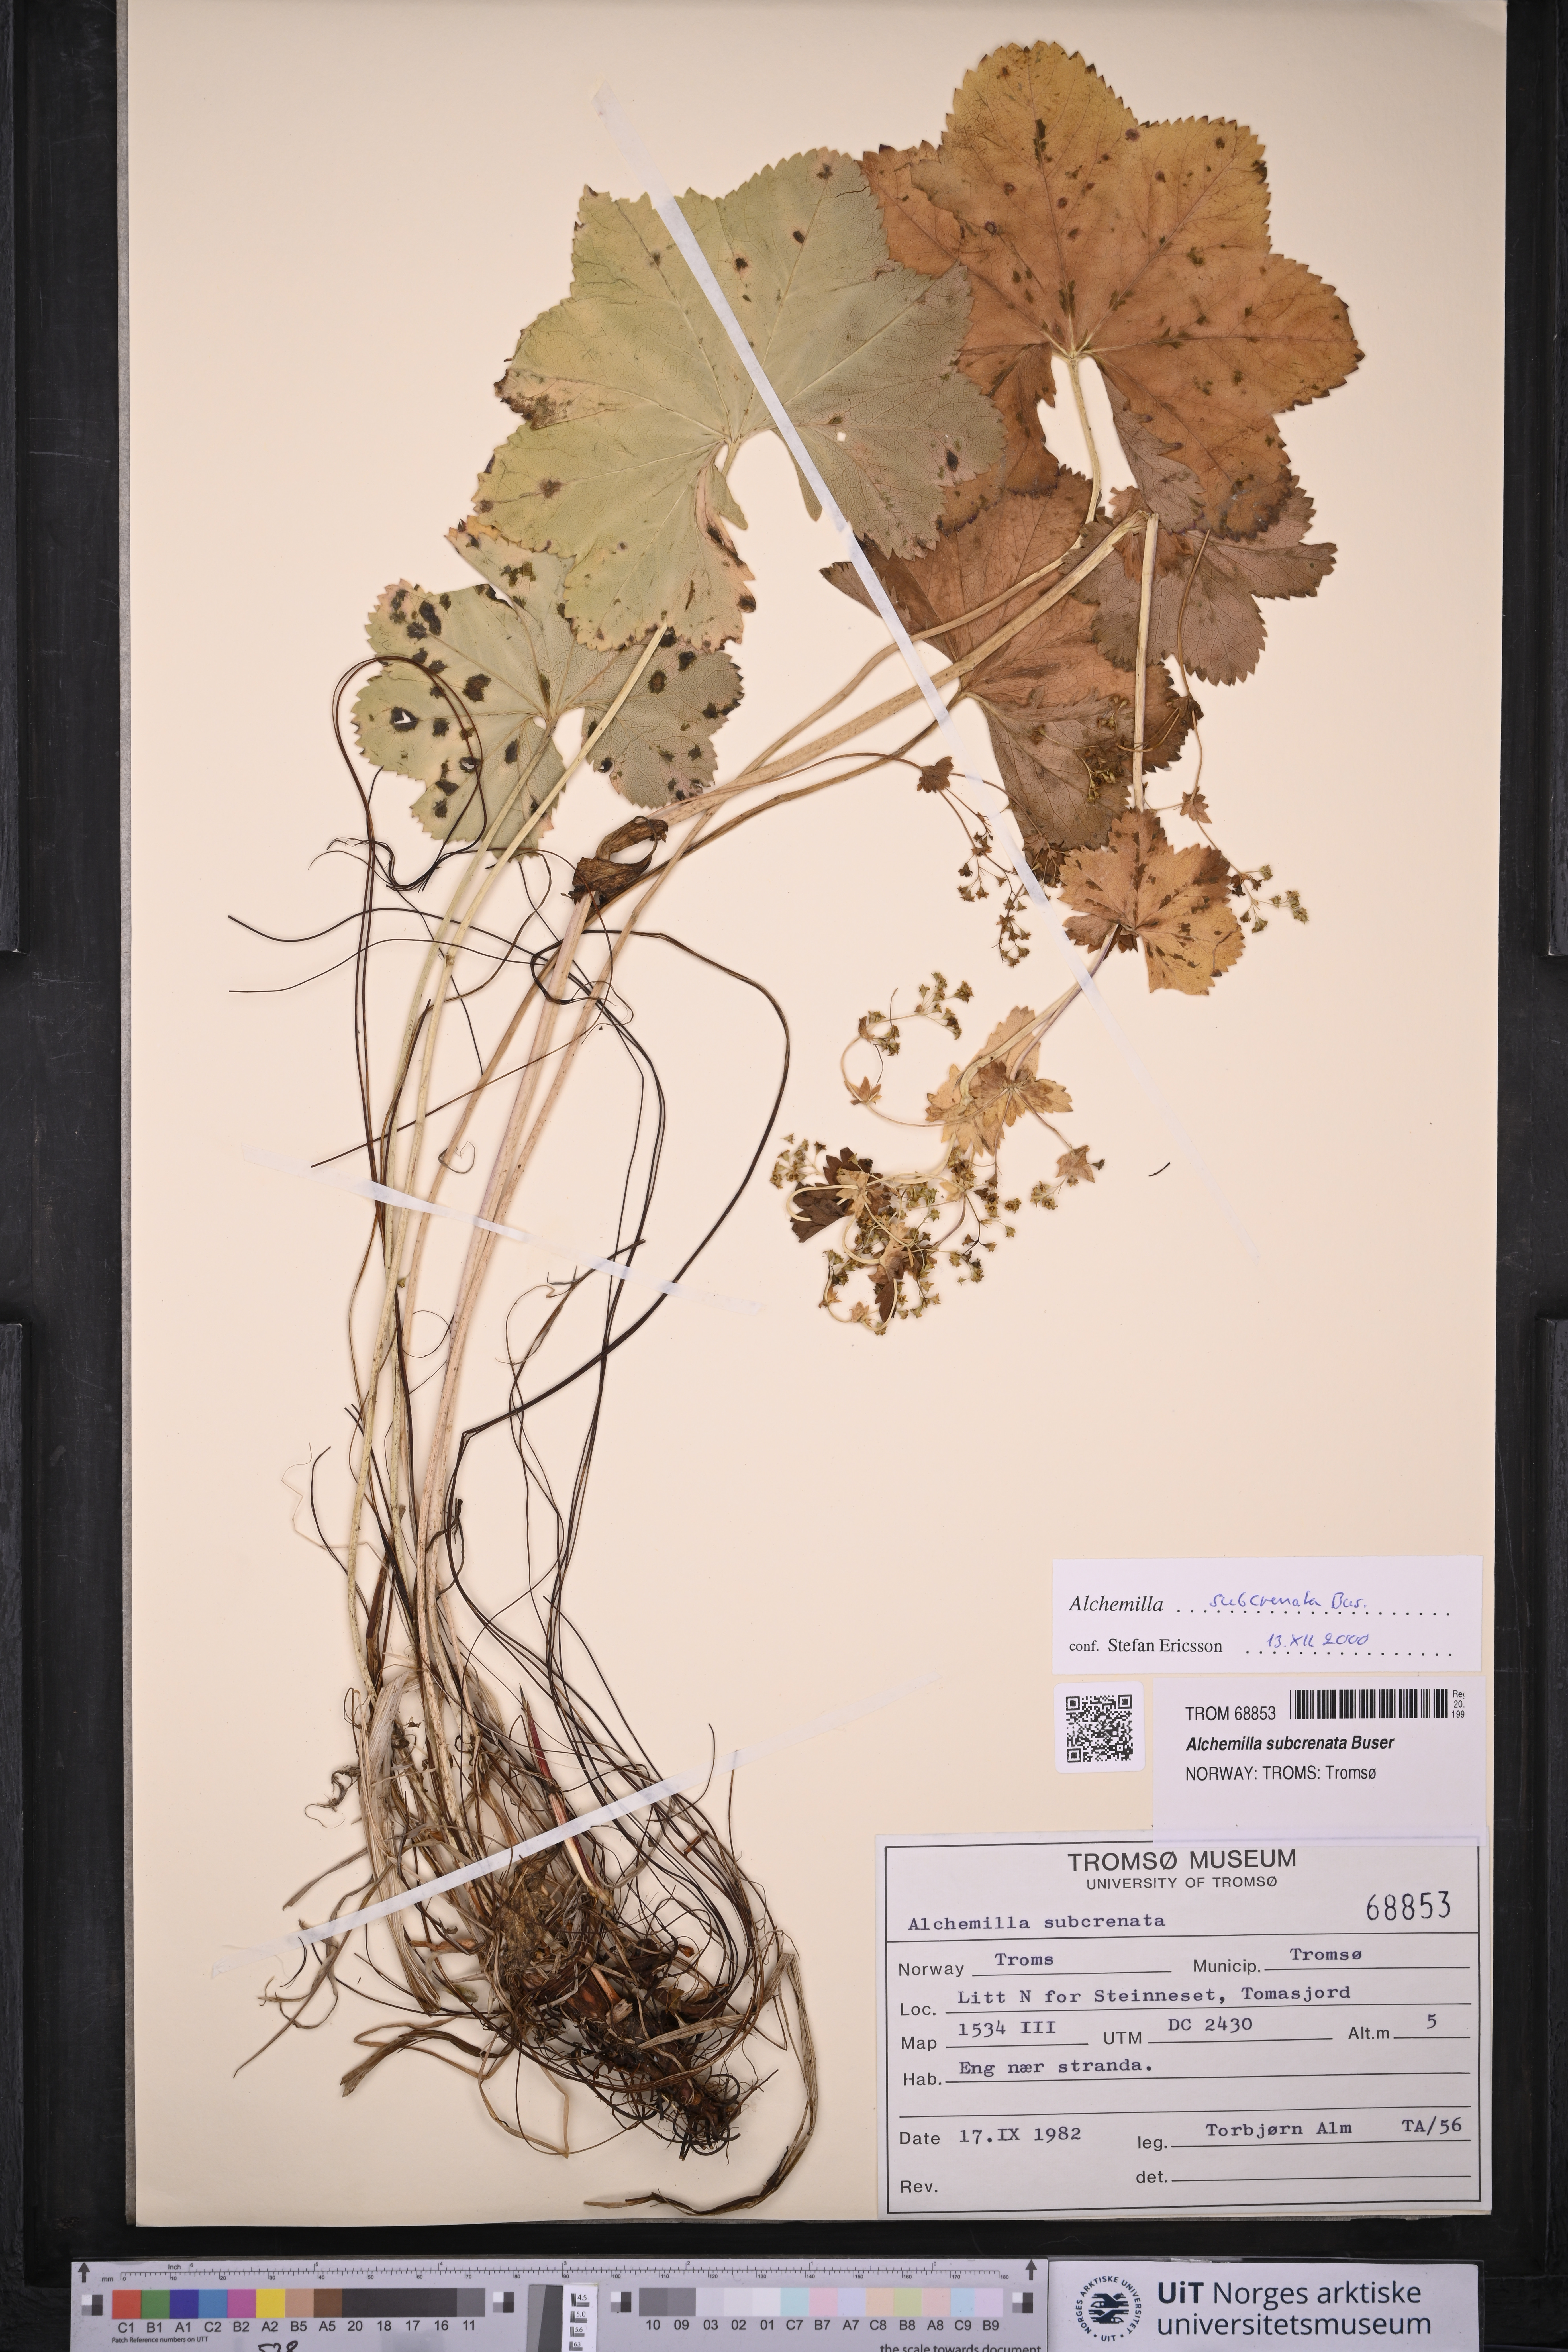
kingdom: Plantae
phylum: Tracheophyta
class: Magnoliopsida
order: Rosales
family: Rosaceae
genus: Alchemilla
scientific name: Alchemilla subcrenata
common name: Broadtooth lady's mantle
